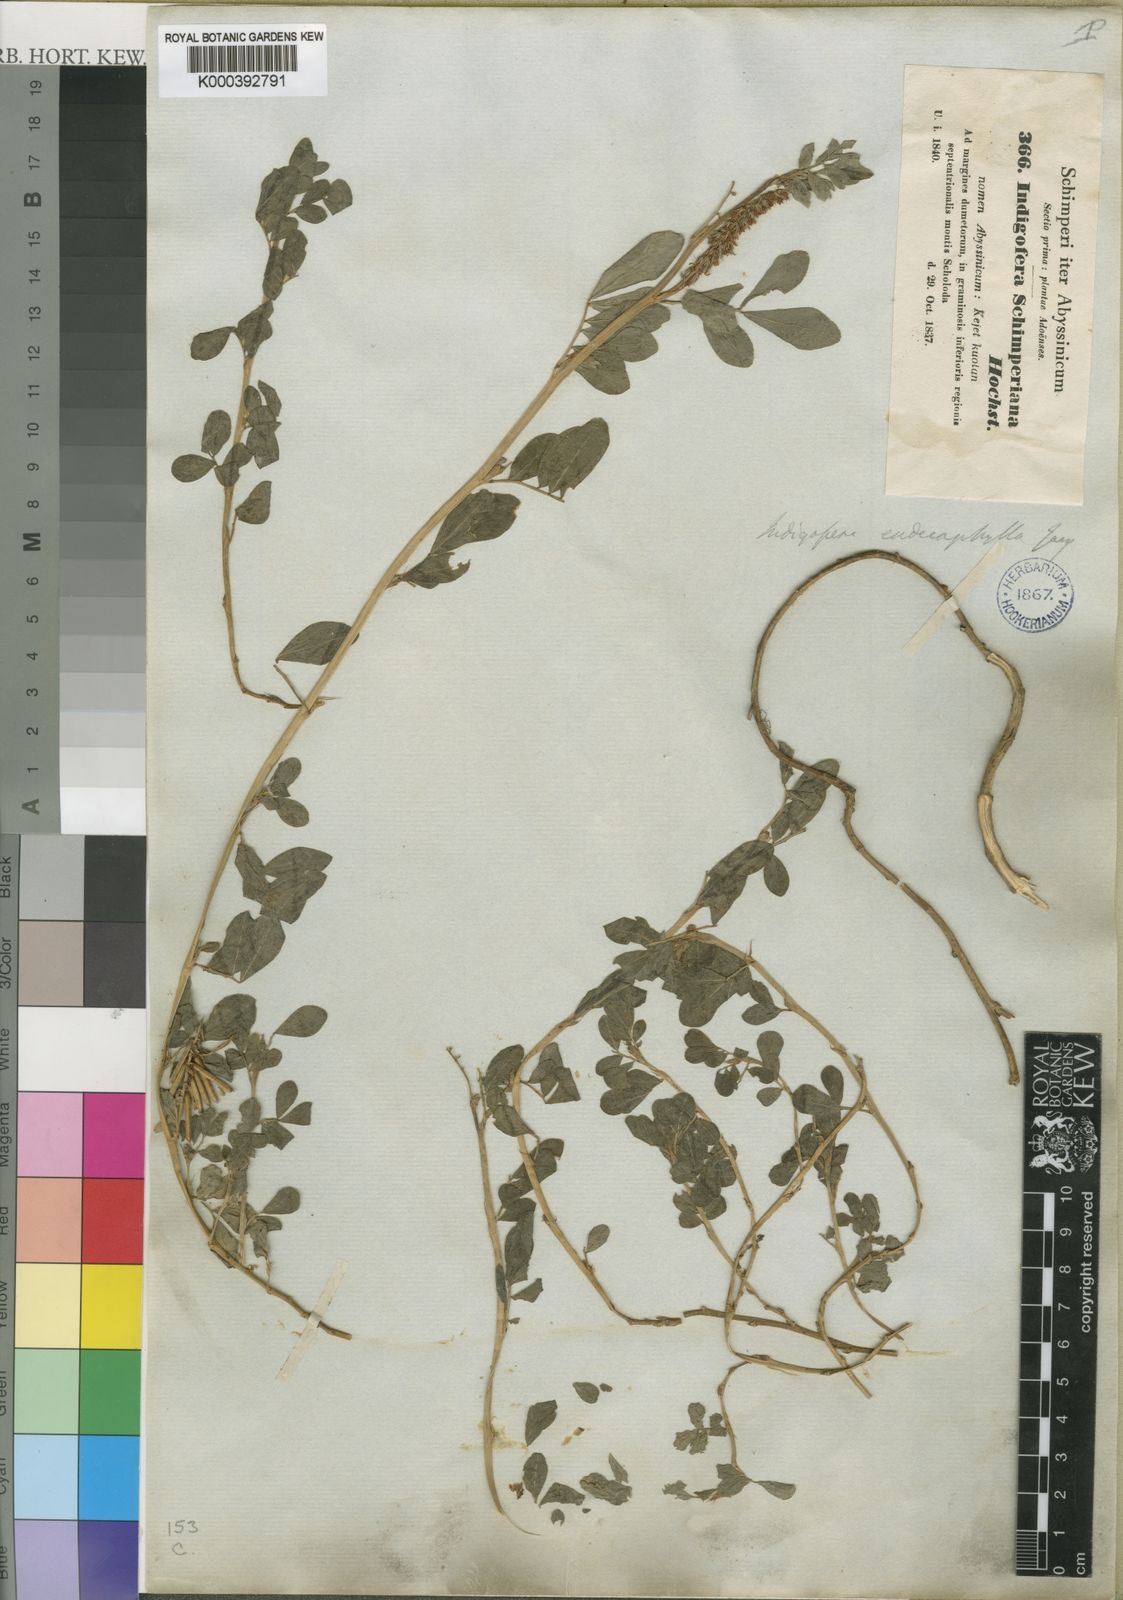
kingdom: Plantae
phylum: Tracheophyta
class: Magnoliopsida
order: Fabales
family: Fabaceae
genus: Indigofera
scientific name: Indigofera spicata
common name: Creeping indigo
